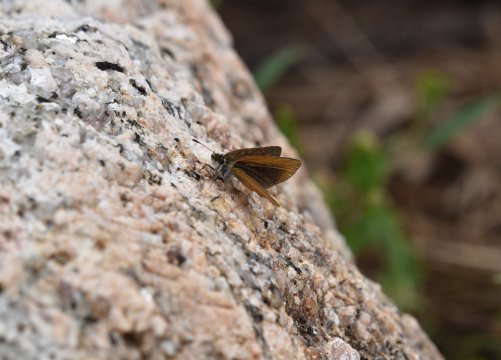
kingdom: Animalia
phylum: Arthropoda
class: Insecta
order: Lepidoptera
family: Hesperiidae
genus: Ancyloxypha
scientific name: Ancyloxypha numitor
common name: Least Skipper
